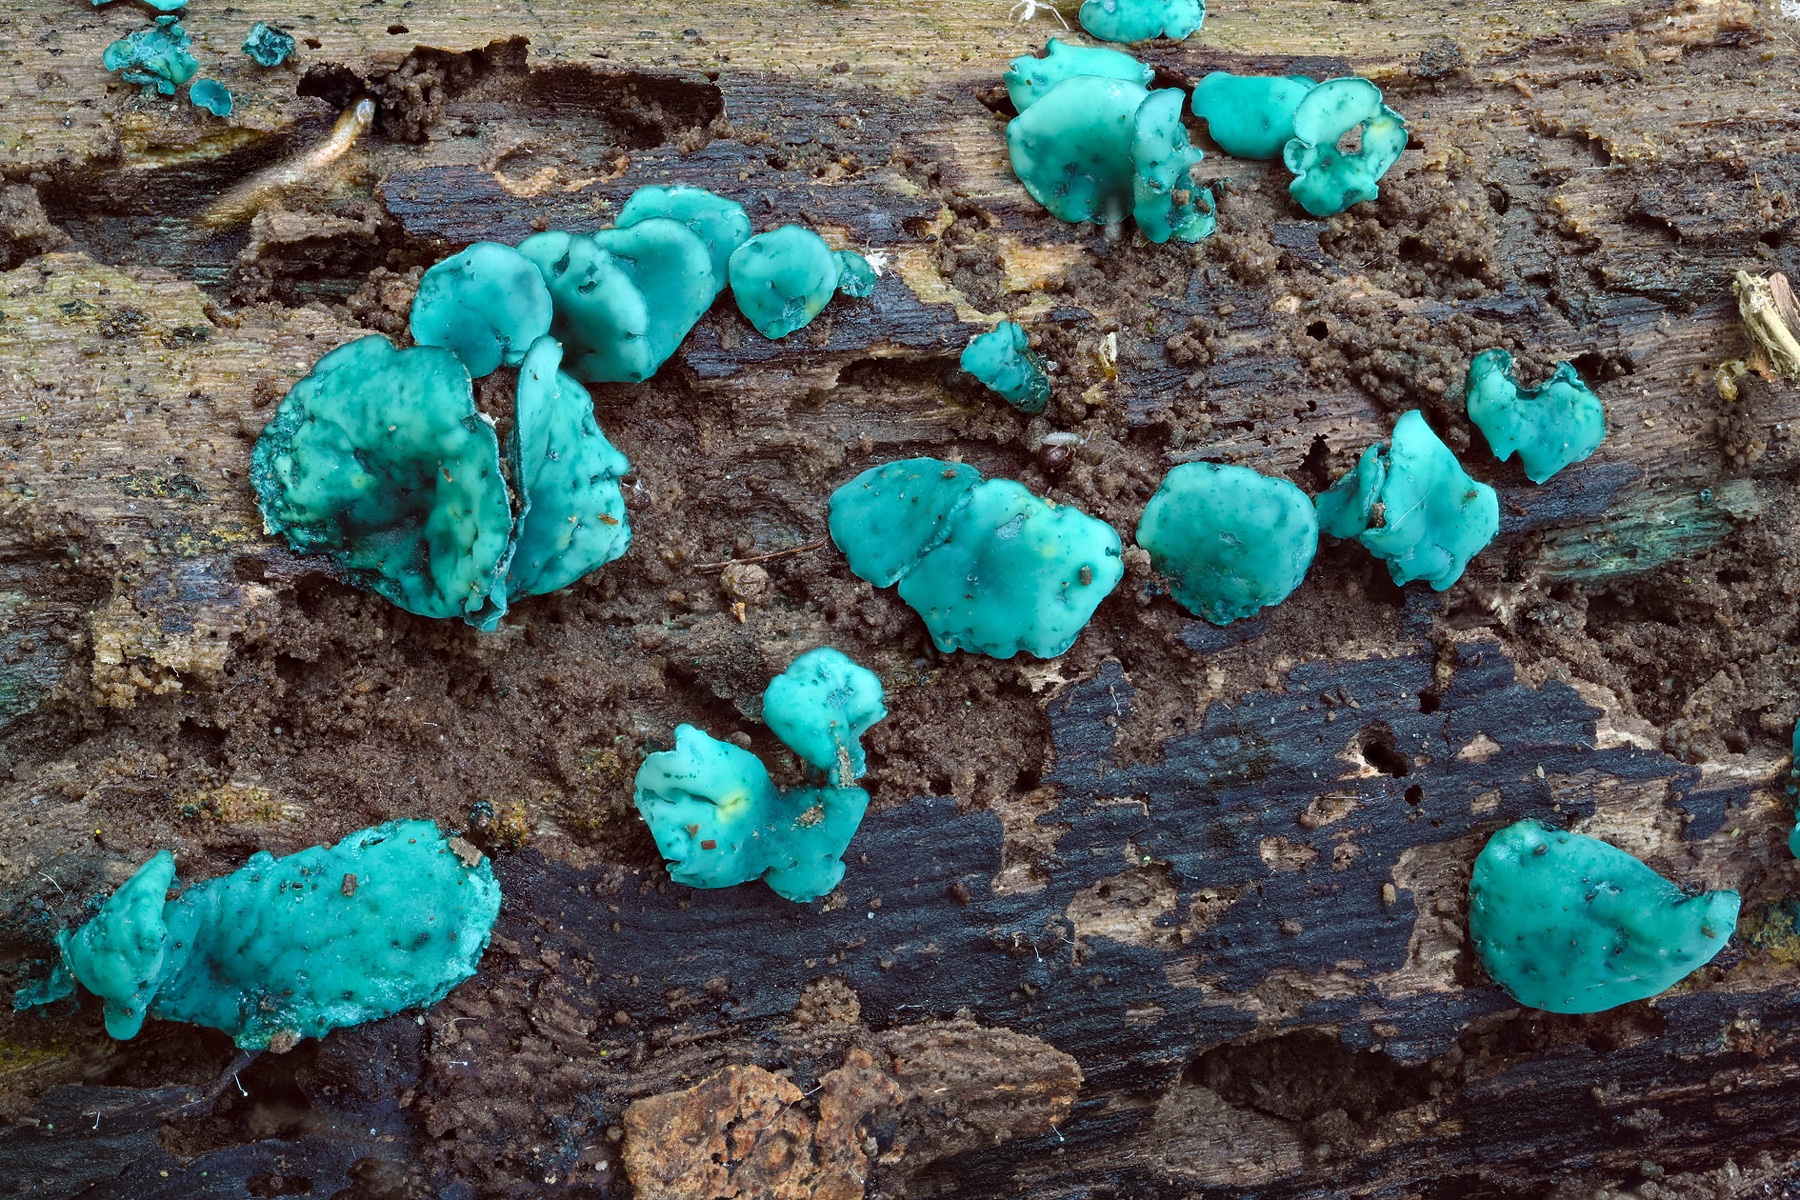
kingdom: Fungi
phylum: Ascomycota
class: Leotiomycetes
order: Helotiales
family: Chlorociboriaceae
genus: Chlorociboria
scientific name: Chlorociboria aeruginascens
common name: almindelig grønskive
